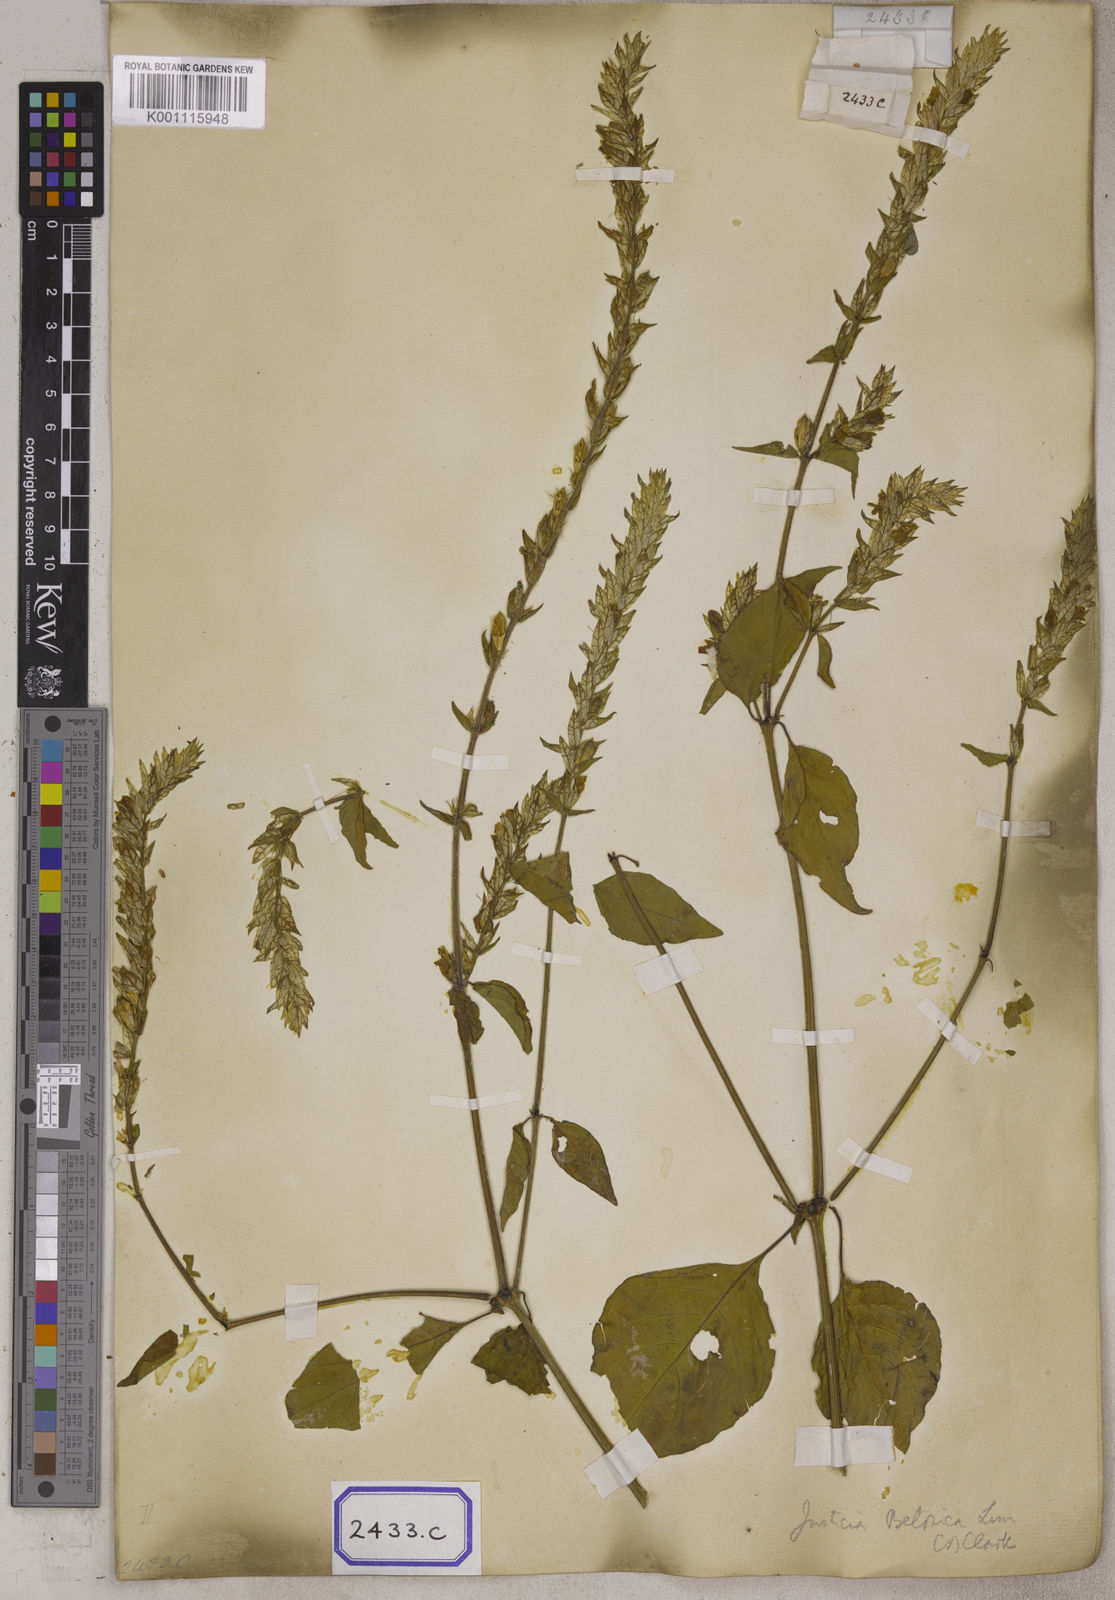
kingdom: Plantae
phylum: Tracheophyta
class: Magnoliopsida
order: Lamiales
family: Acanthaceae
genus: Nicoteba
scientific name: Nicoteba betonica
